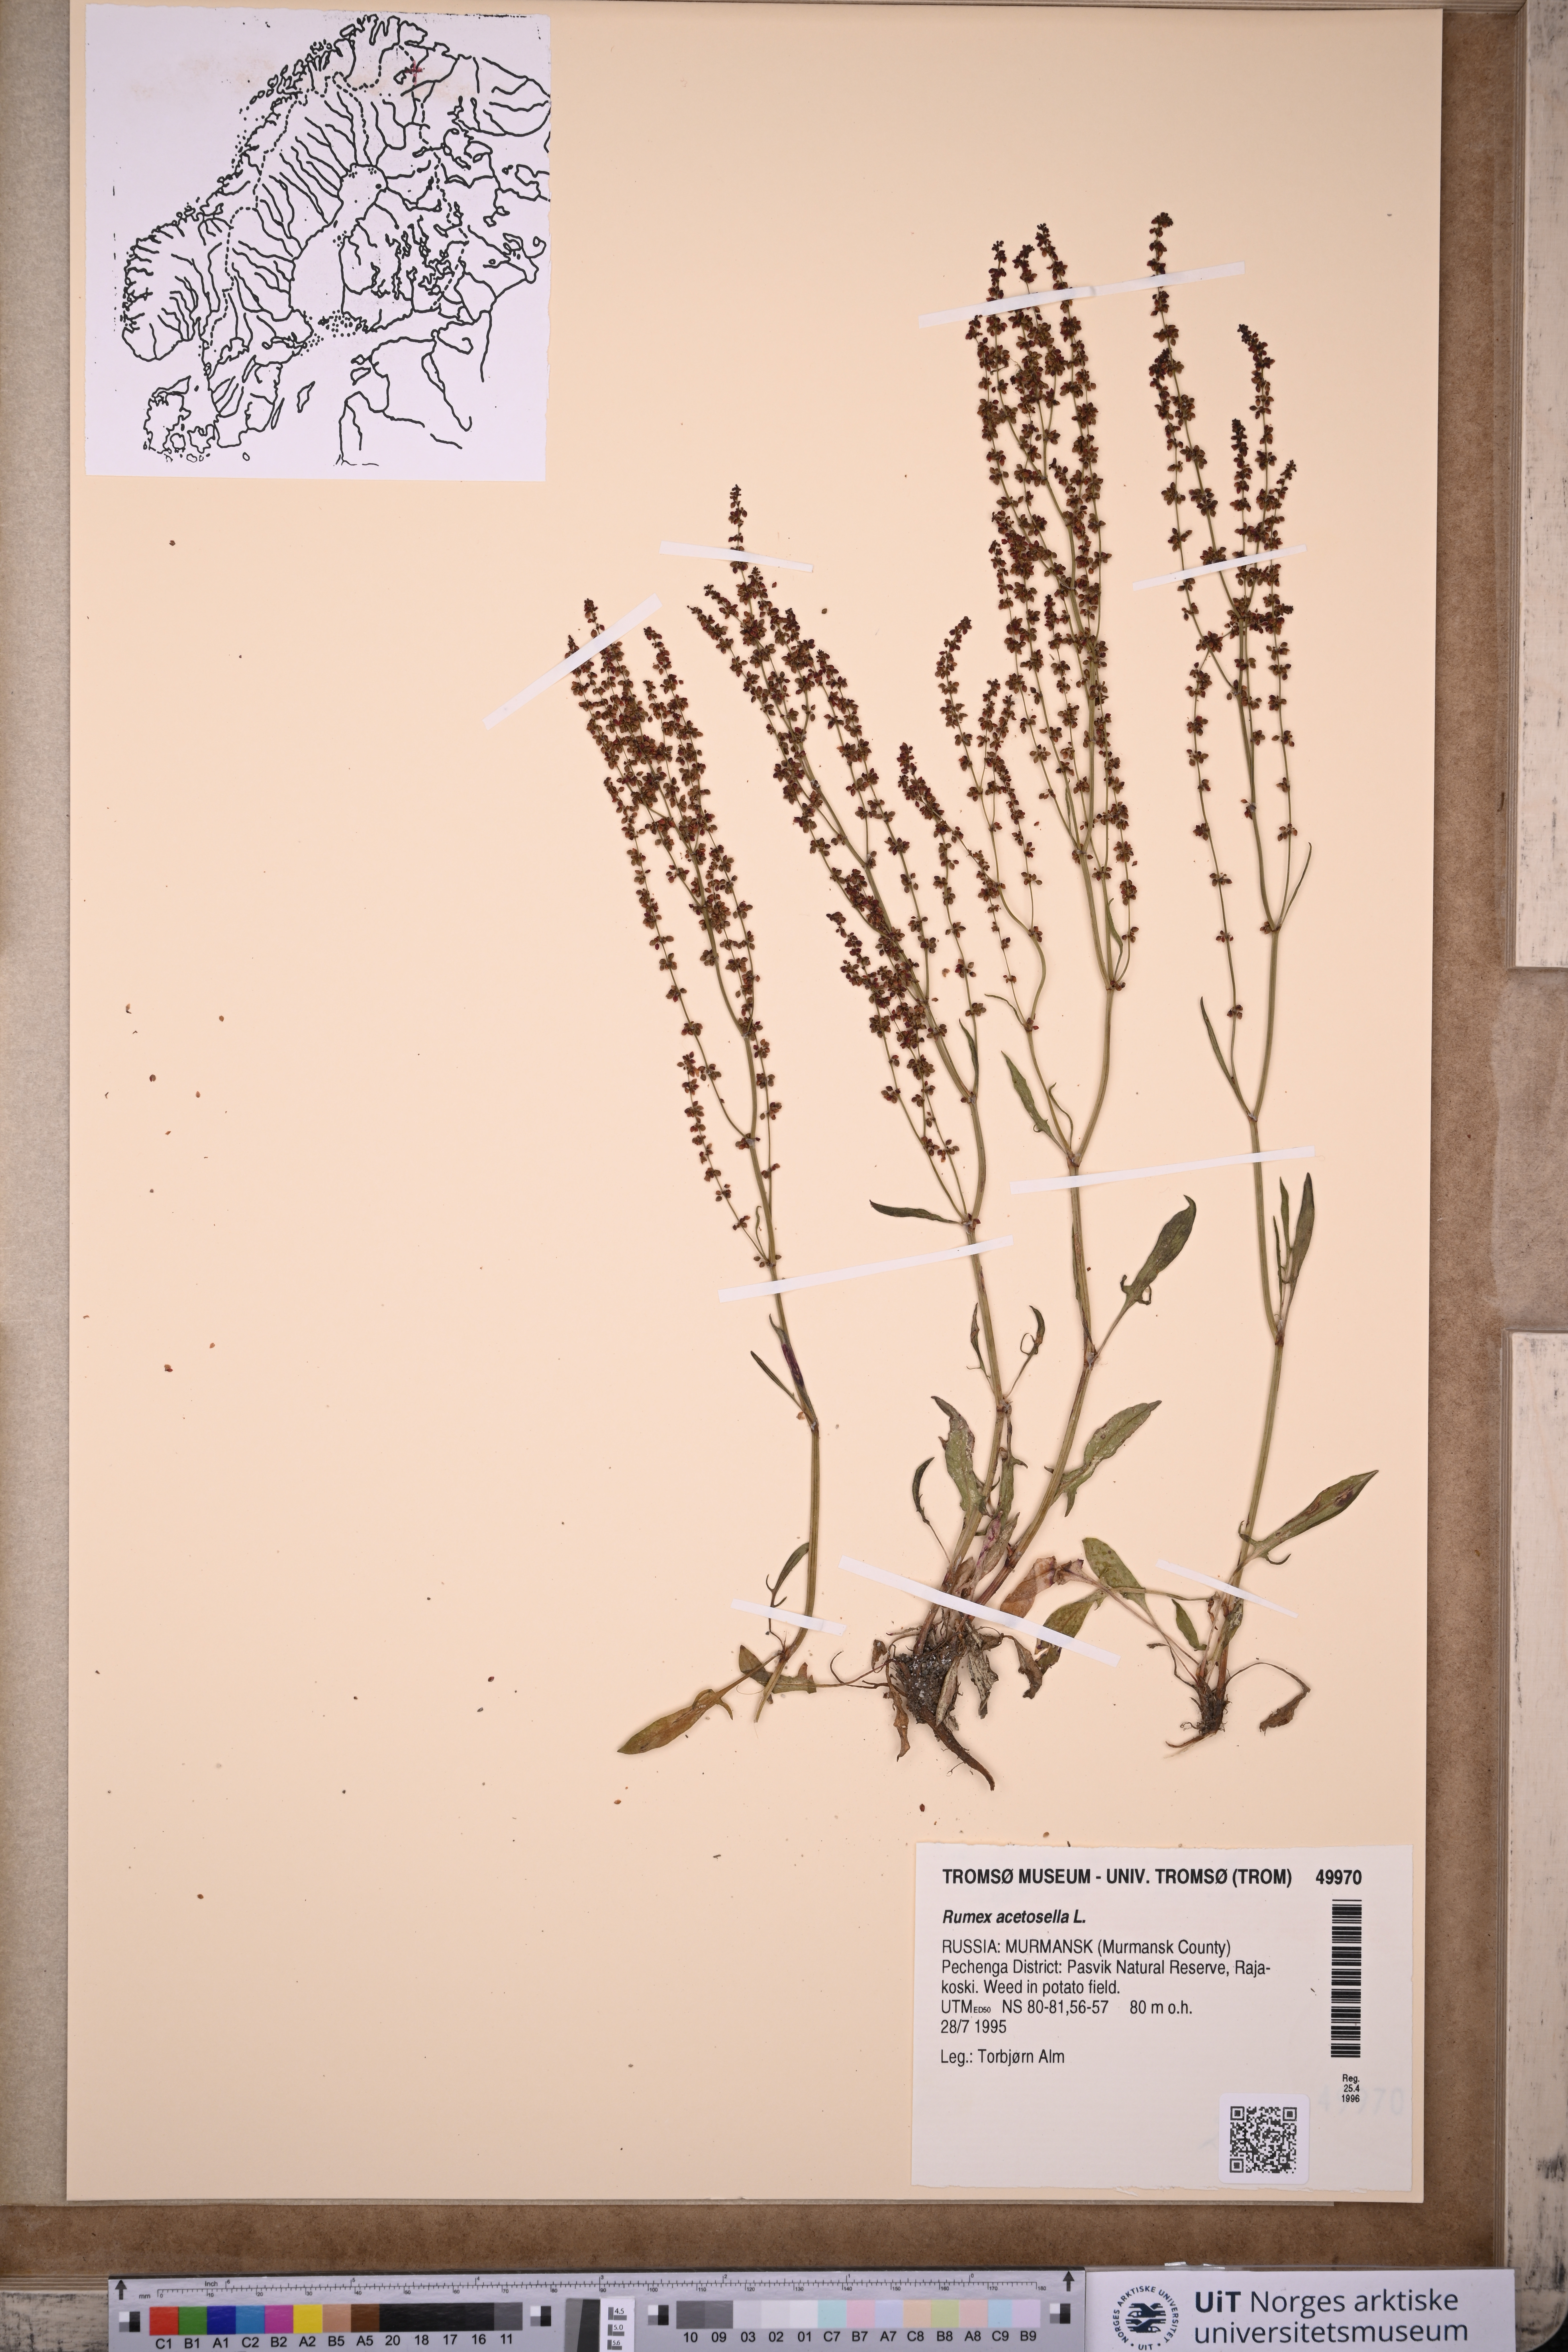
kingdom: Plantae
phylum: Tracheophyta
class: Magnoliopsida
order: Caryophyllales
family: Polygonaceae
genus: Rumex
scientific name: Rumex acetosella
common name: Common sheep sorrel
